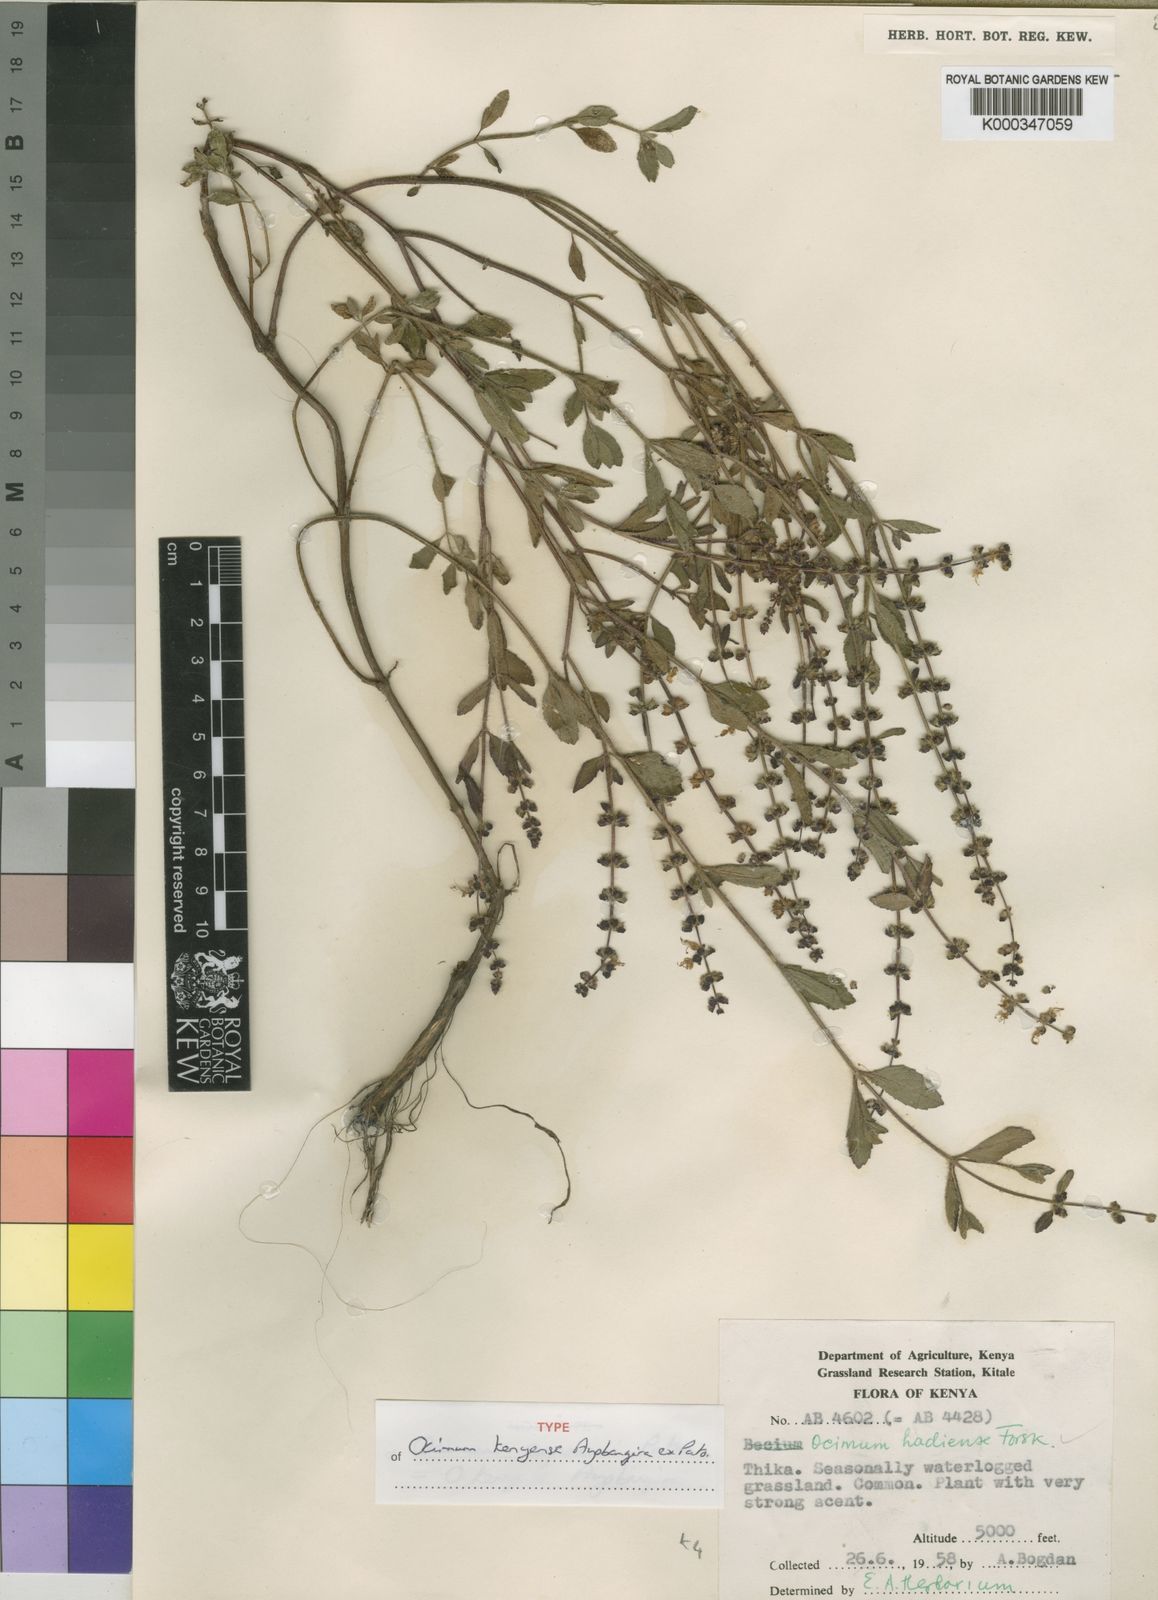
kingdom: Plantae
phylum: Tracheophyta
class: Magnoliopsida
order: Lamiales
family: Lamiaceae
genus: Ocimum
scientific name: Ocimum kenyense
